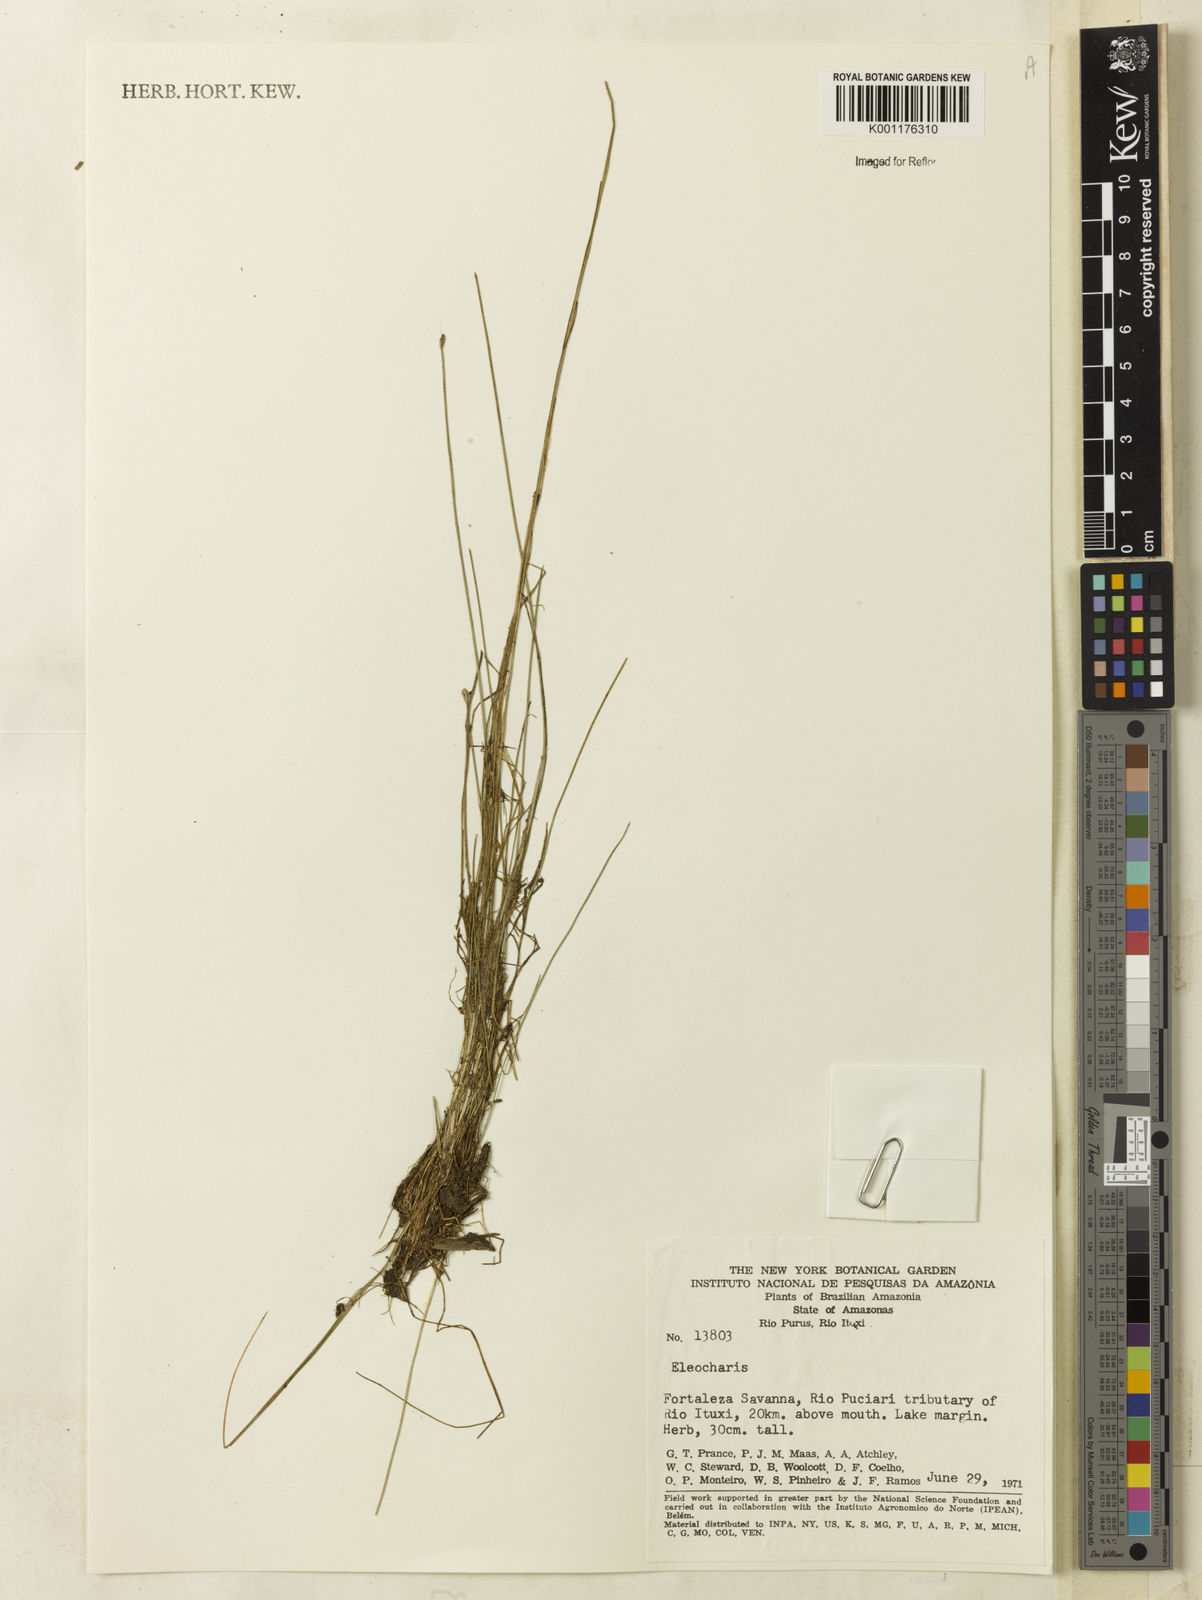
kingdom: Plantae
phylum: Tracheophyta
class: Liliopsida
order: Poales
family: Cyperaceae
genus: Eleocharis
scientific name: Eleocharis
